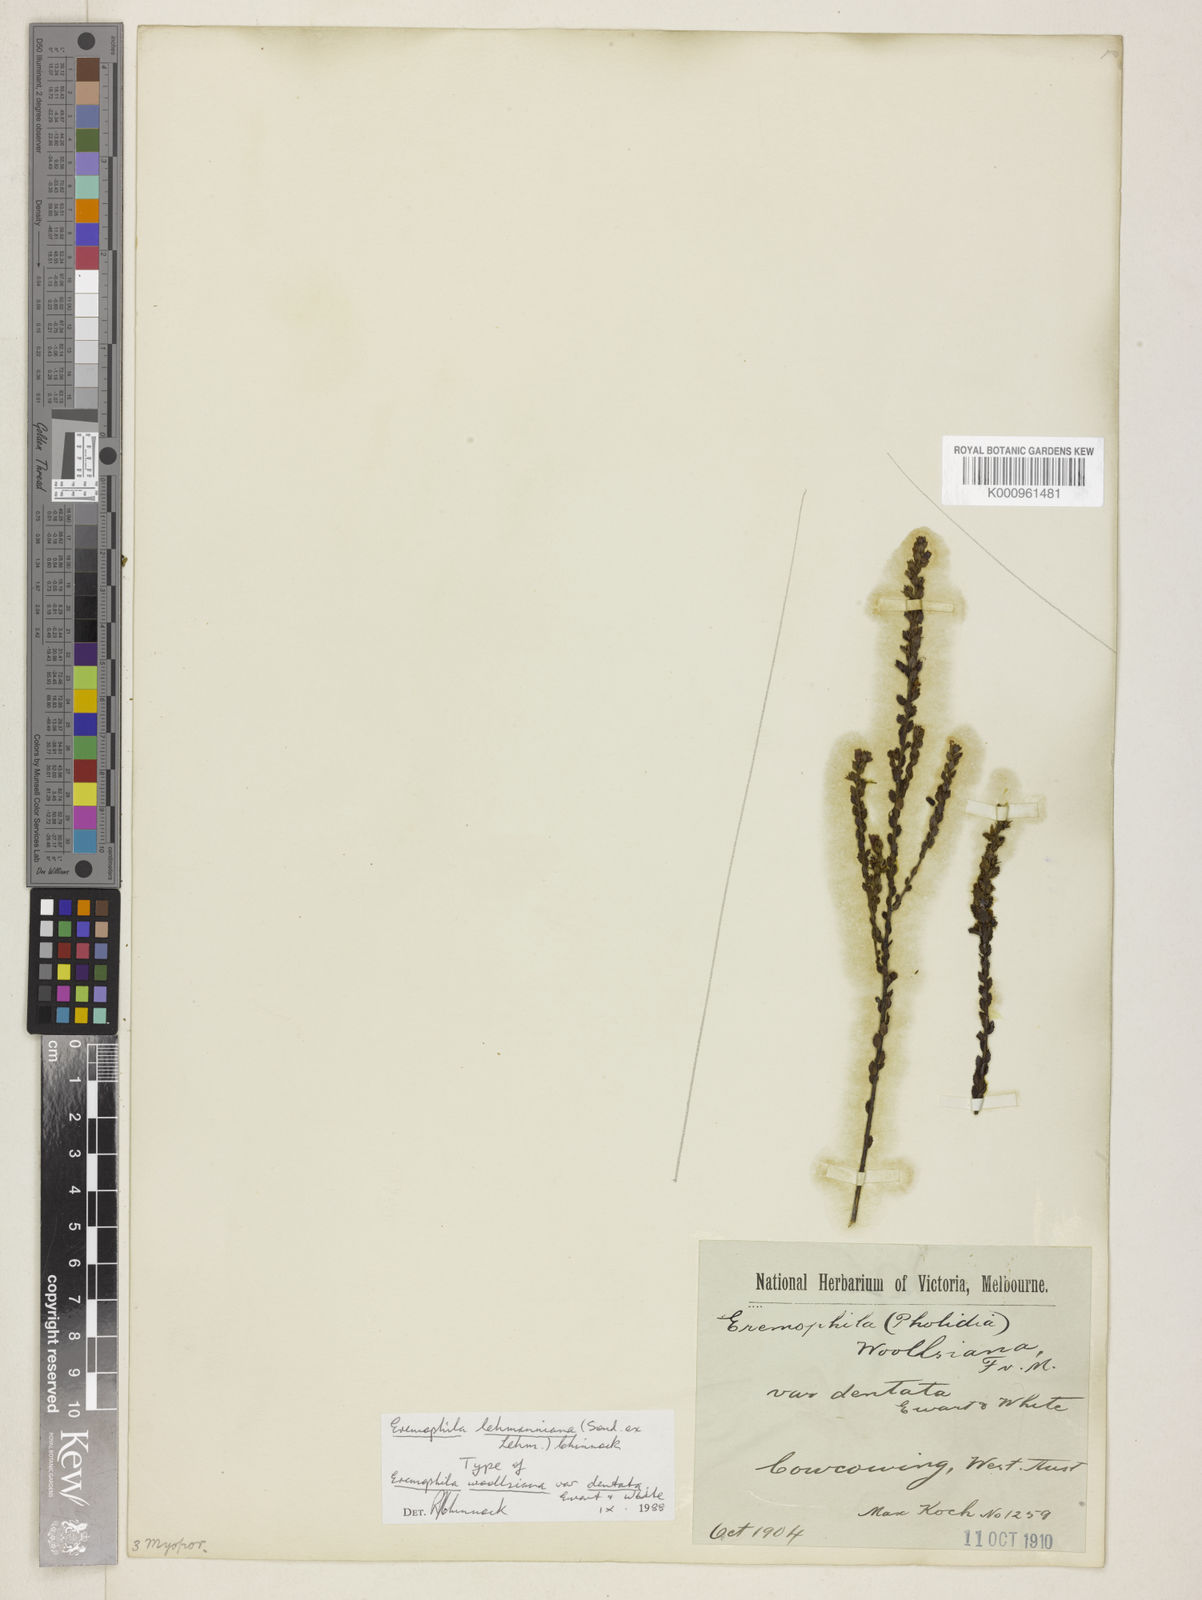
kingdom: Plantae
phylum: Tracheophyta
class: Magnoliopsida
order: Lamiales
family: Scrophulariaceae
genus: Eremophila
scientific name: Eremophila lehmanniana
